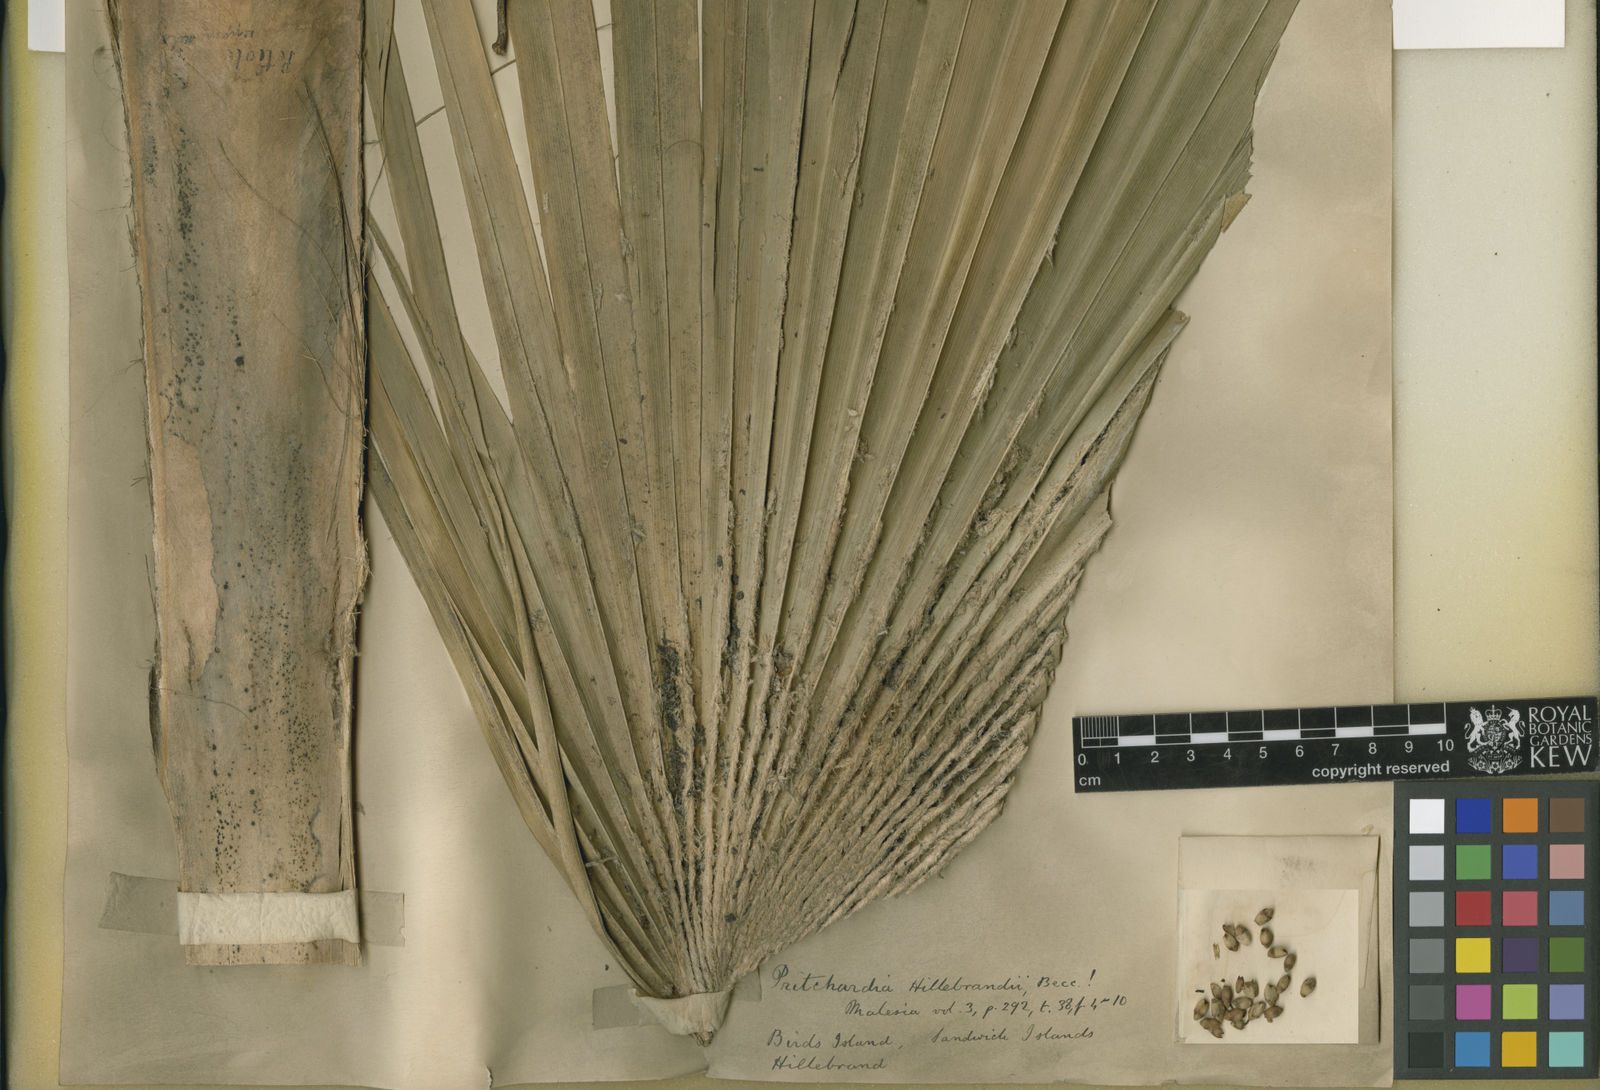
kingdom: Plantae
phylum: Tracheophyta
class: Liliopsida
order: Arecales
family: Arecaceae
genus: Pritchardia
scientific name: Pritchardia hillebrandii
